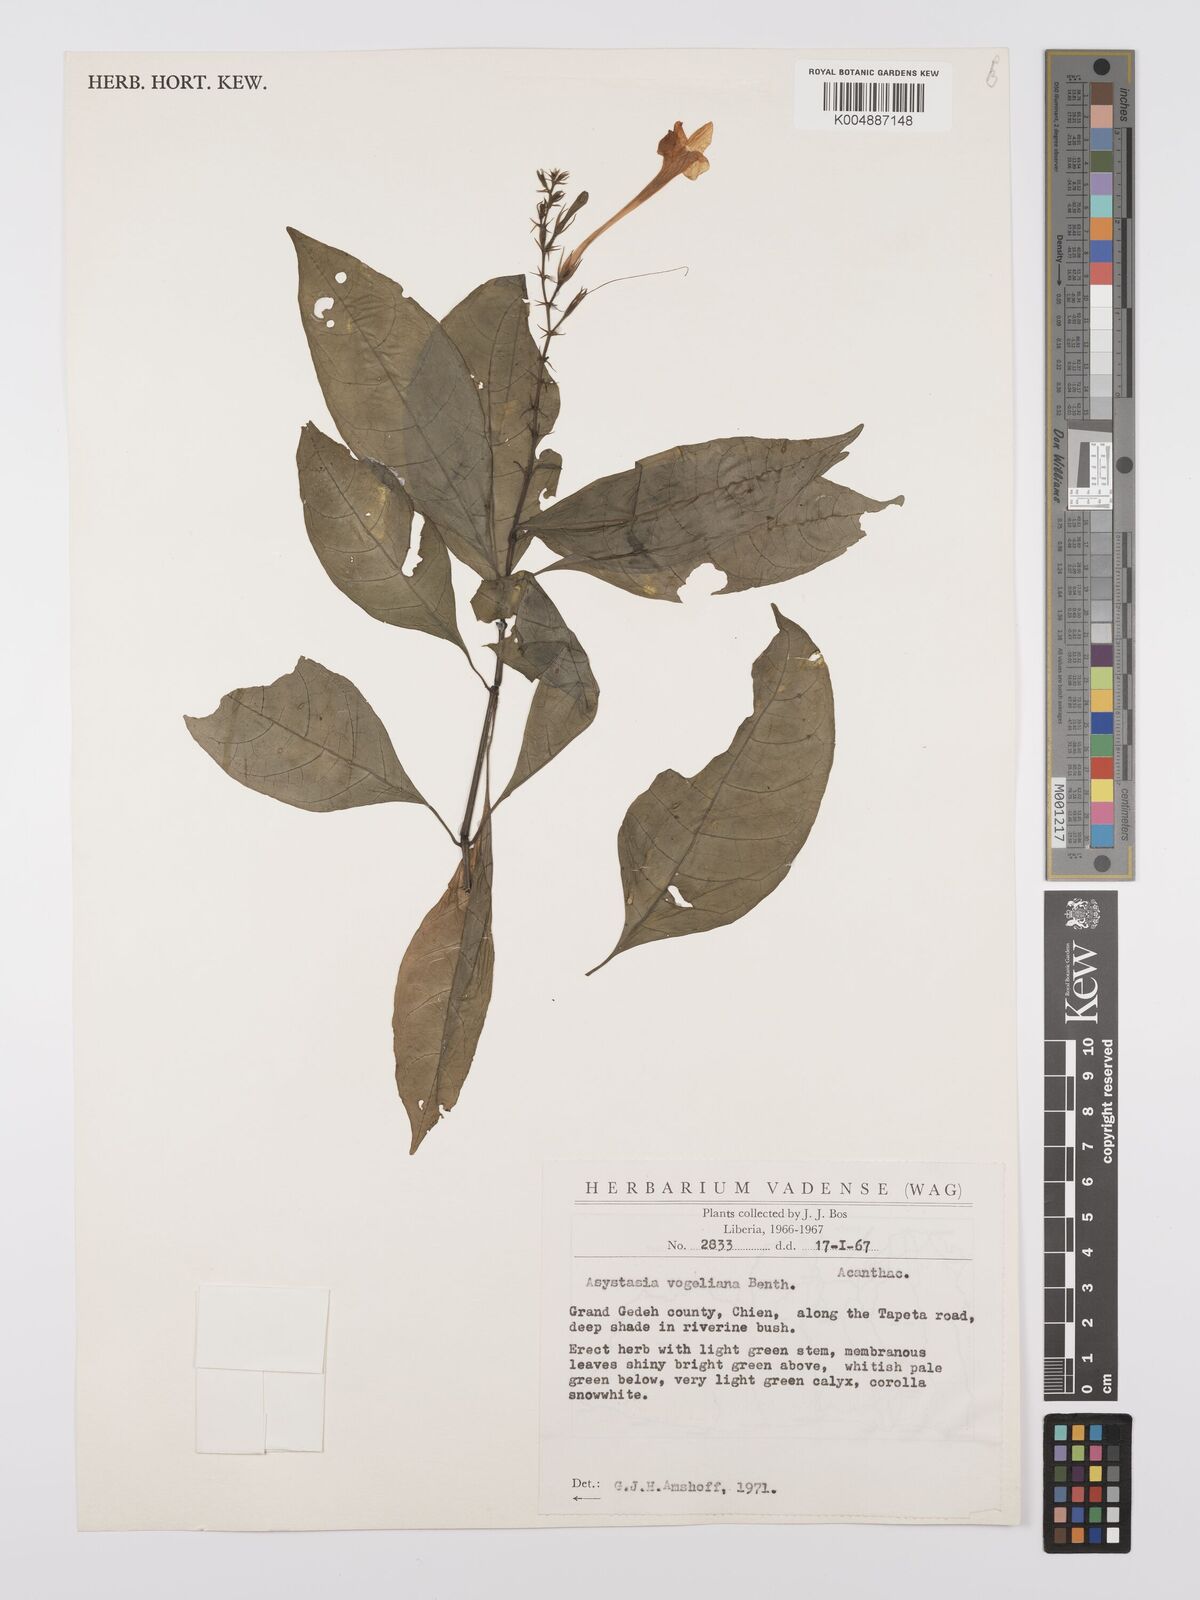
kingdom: Plantae
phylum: Tracheophyta
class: Magnoliopsida
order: Lamiales
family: Acanthaceae
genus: Asystasia
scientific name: Asystasia vogeliana
